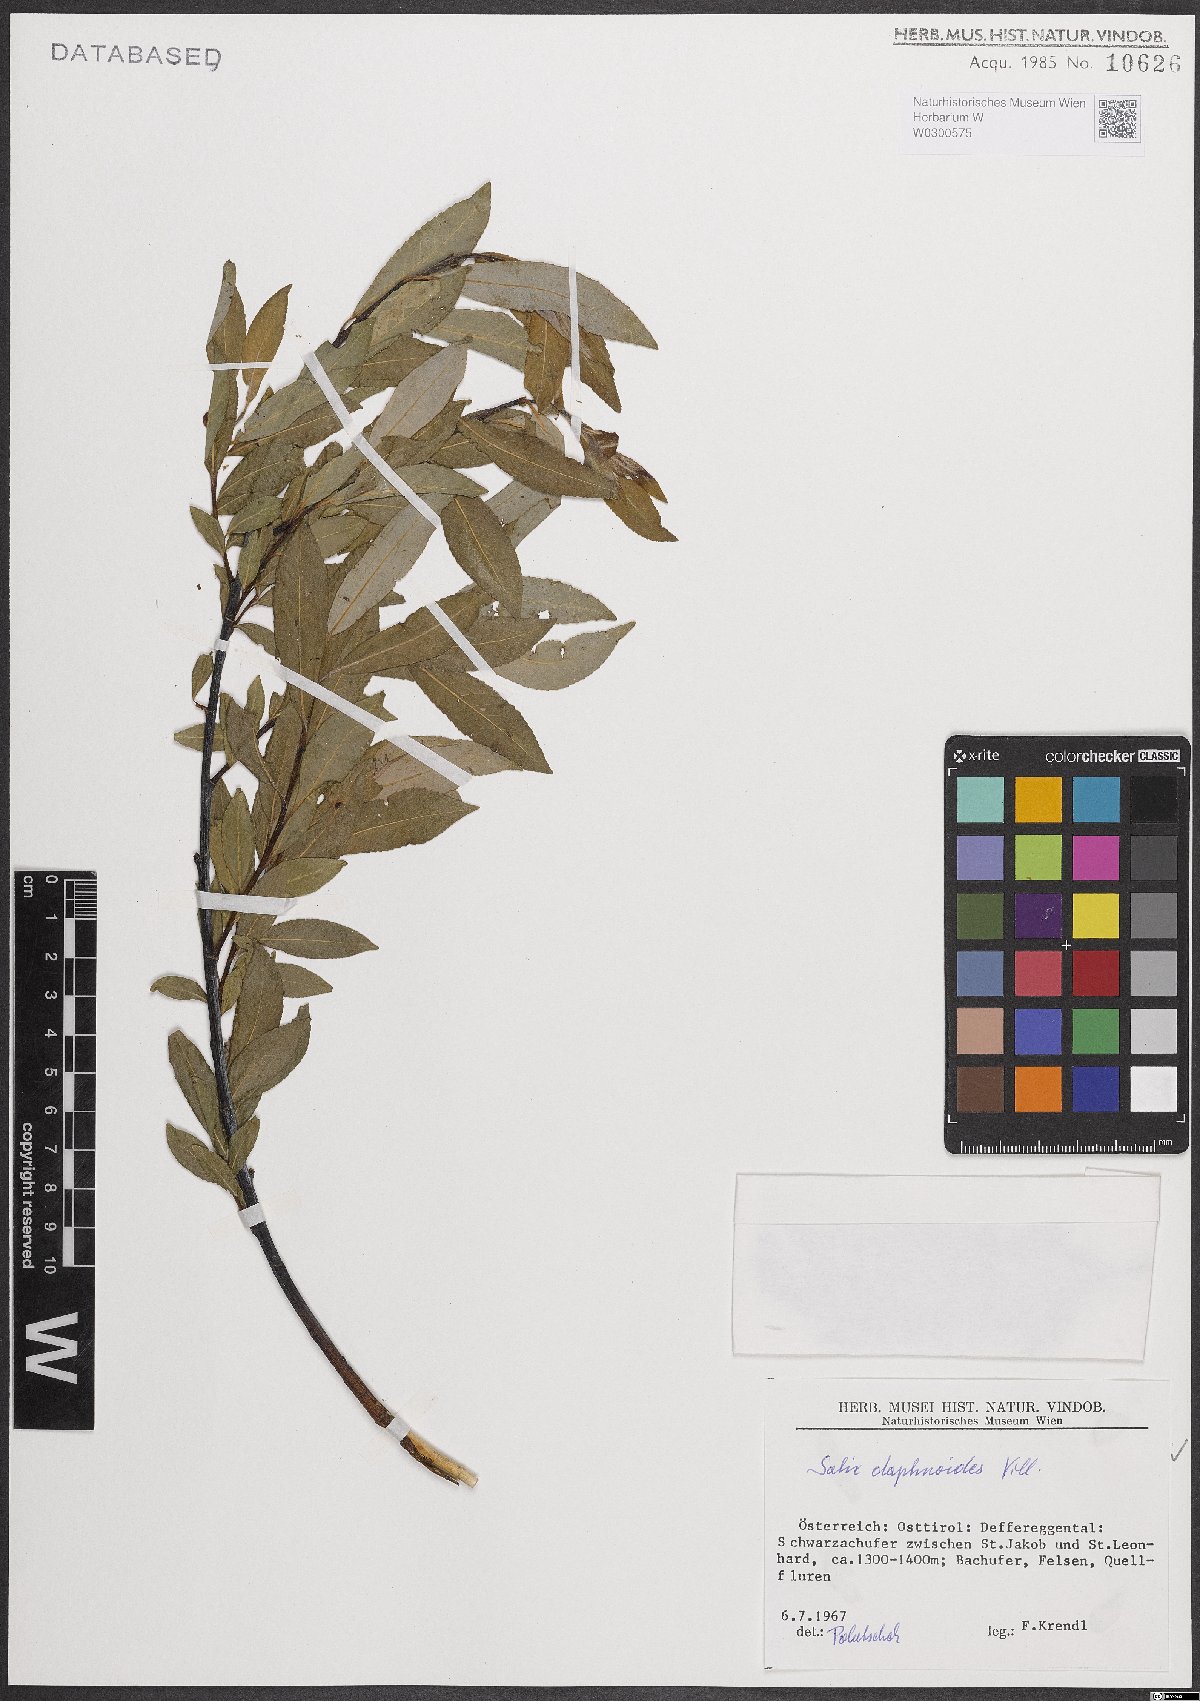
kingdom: Plantae
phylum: Tracheophyta
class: Magnoliopsida
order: Malpighiales
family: Salicaceae
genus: Salix
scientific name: Salix daphnoides
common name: European violet-willow
